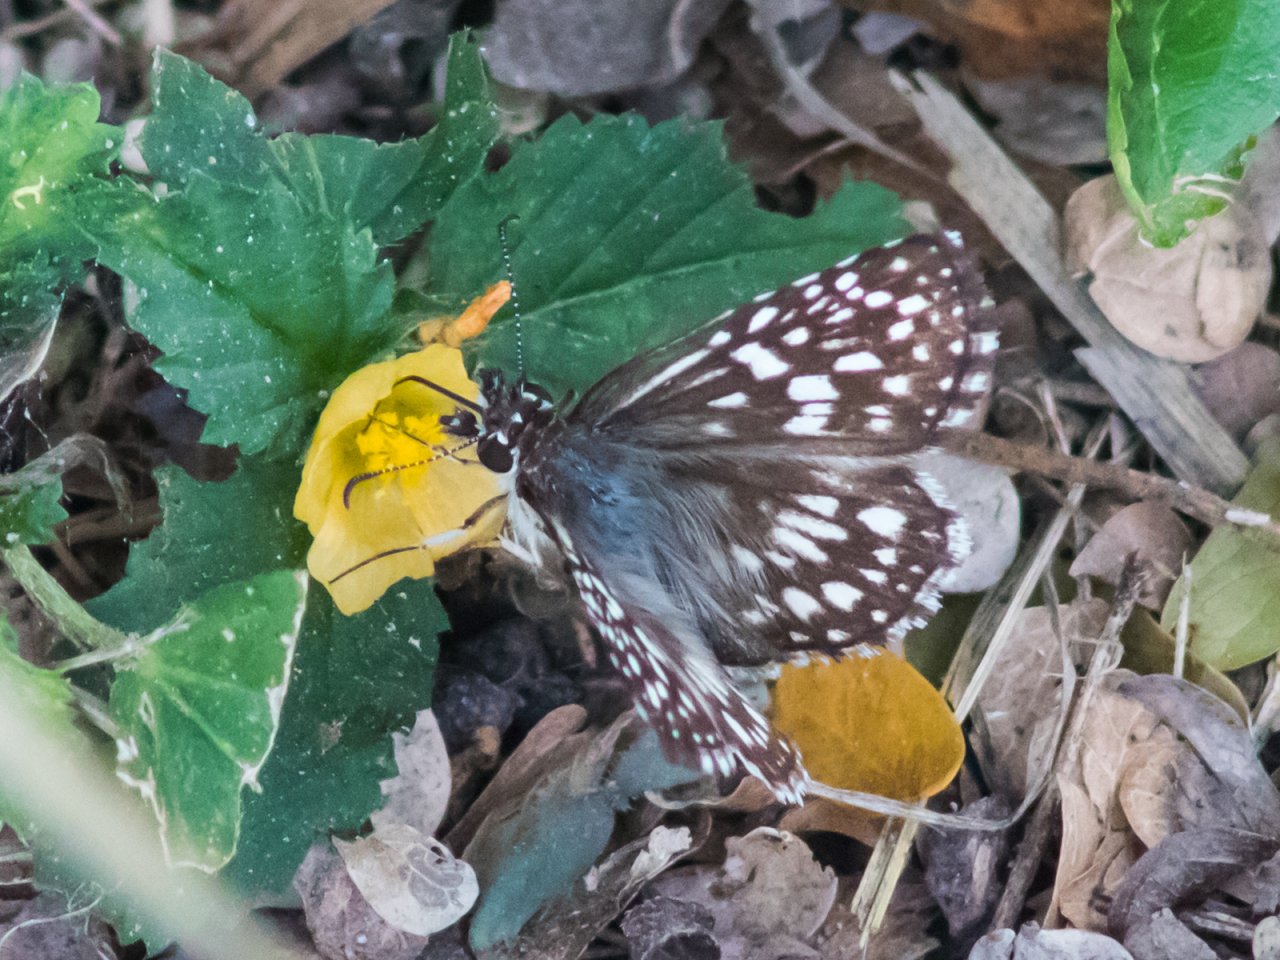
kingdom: Animalia
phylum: Arthropoda
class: Insecta
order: Lepidoptera
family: Hesperiidae
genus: Pyrgus
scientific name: Pyrgus oileus
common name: Tropical Checkered-Skipper
